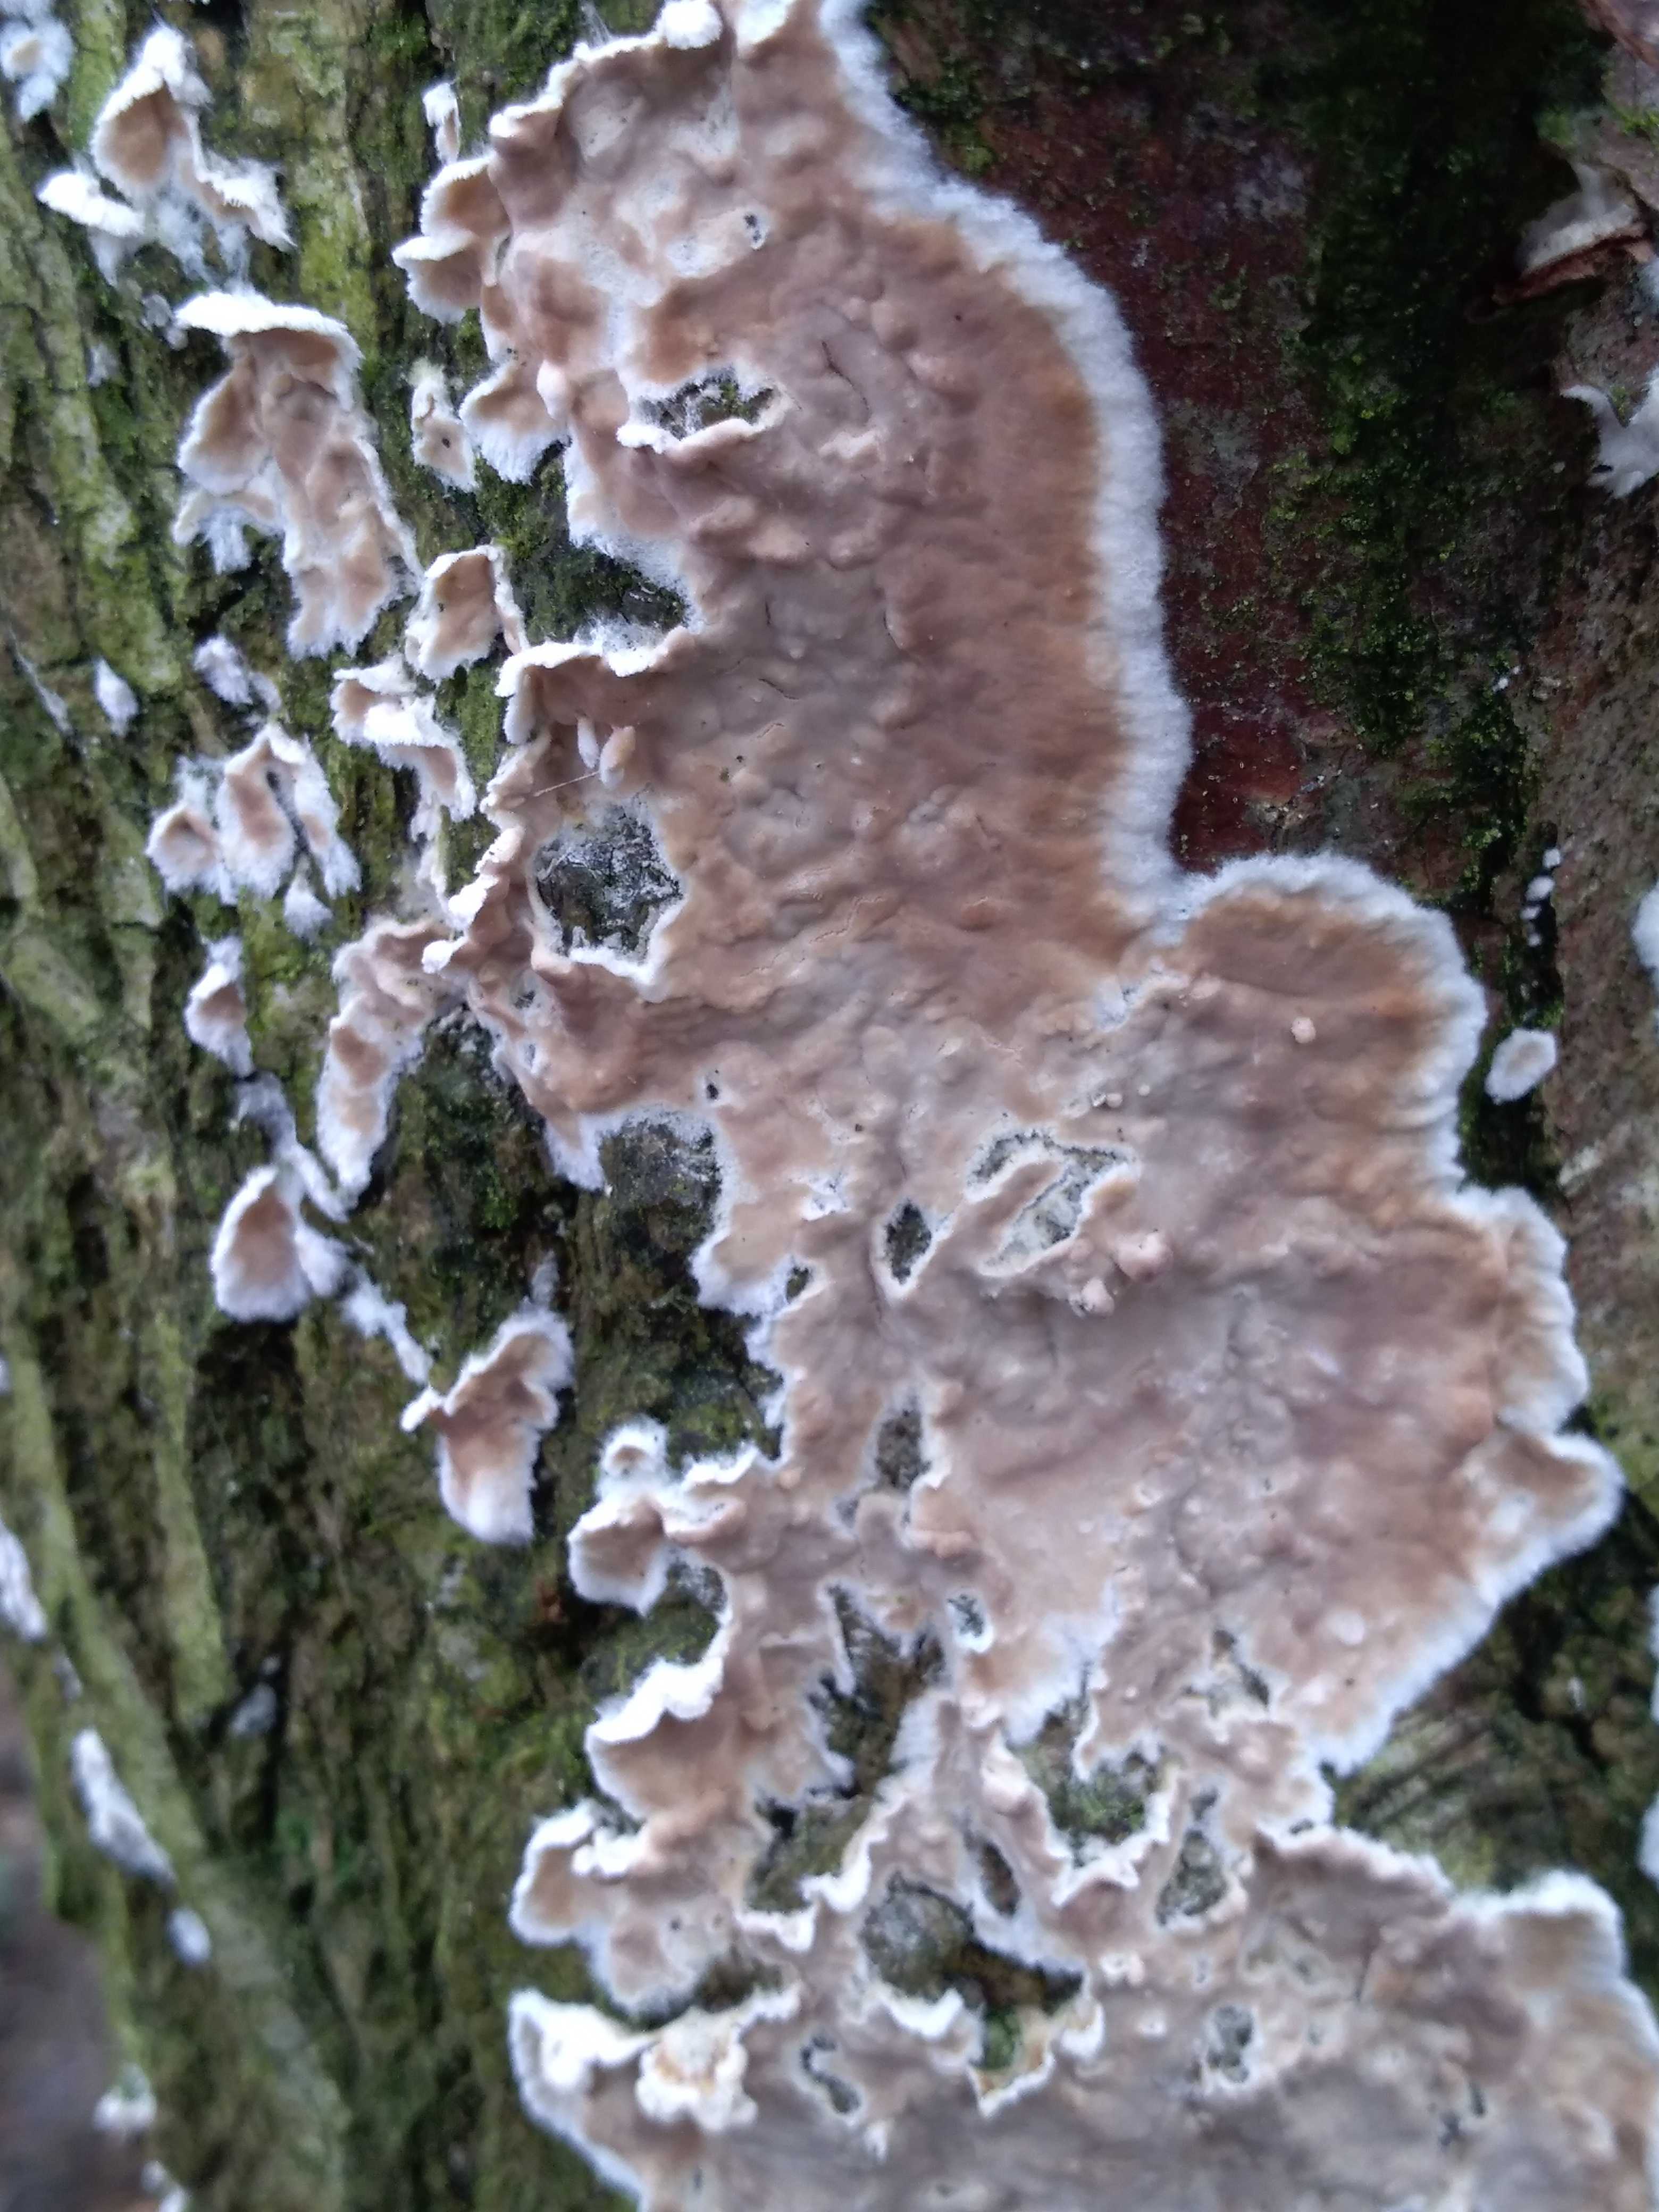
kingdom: Fungi
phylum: Basidiomycota
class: Agaricomycetes
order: Agaricales
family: Physalacriaceae
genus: Cylindrobasidium
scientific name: Cylindrobasidium evolvens
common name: sprækkehinde
